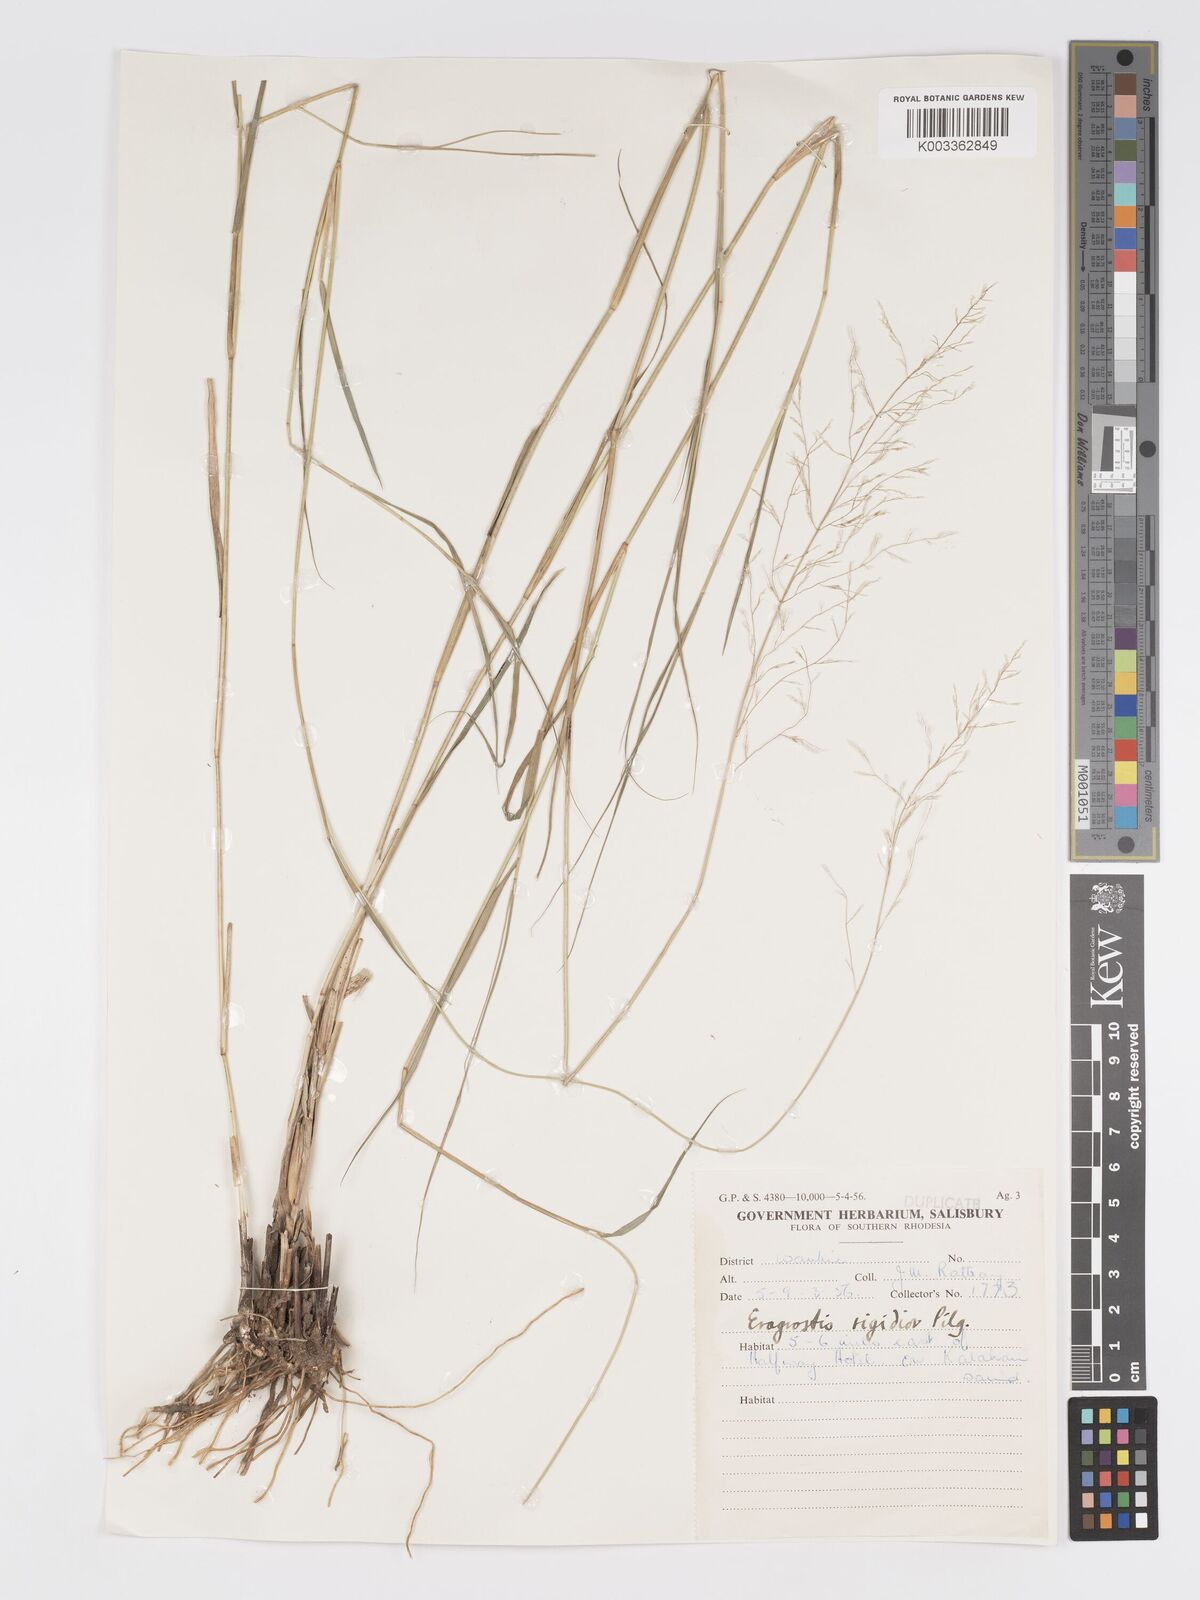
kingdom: Plantae
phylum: Tracheophyta
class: Liliopsida
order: Poales
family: Poaceae
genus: Eragrostis
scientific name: Eragrostis cylindriflora
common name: Cylinderflower lovegrass
